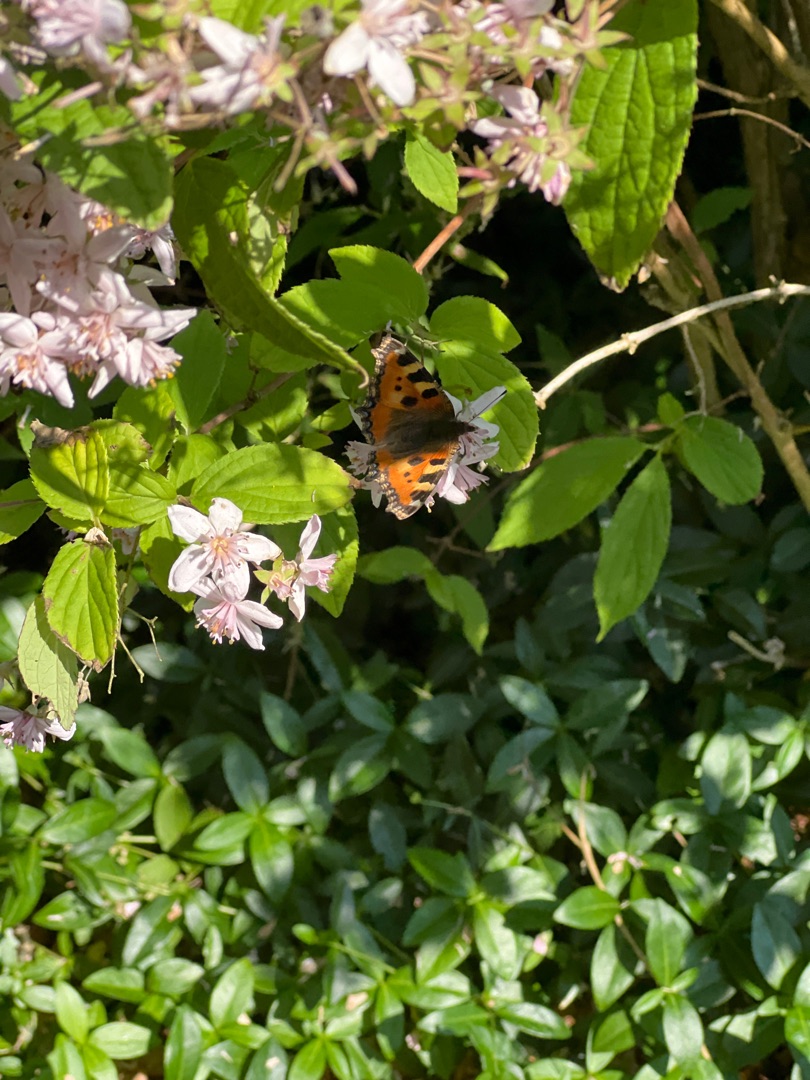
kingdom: Animalia
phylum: Arthropoda
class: Insecta
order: Lepidoptera
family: Nymphalidae
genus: Aglais
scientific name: Aglais urticae
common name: Nældens takvinge
